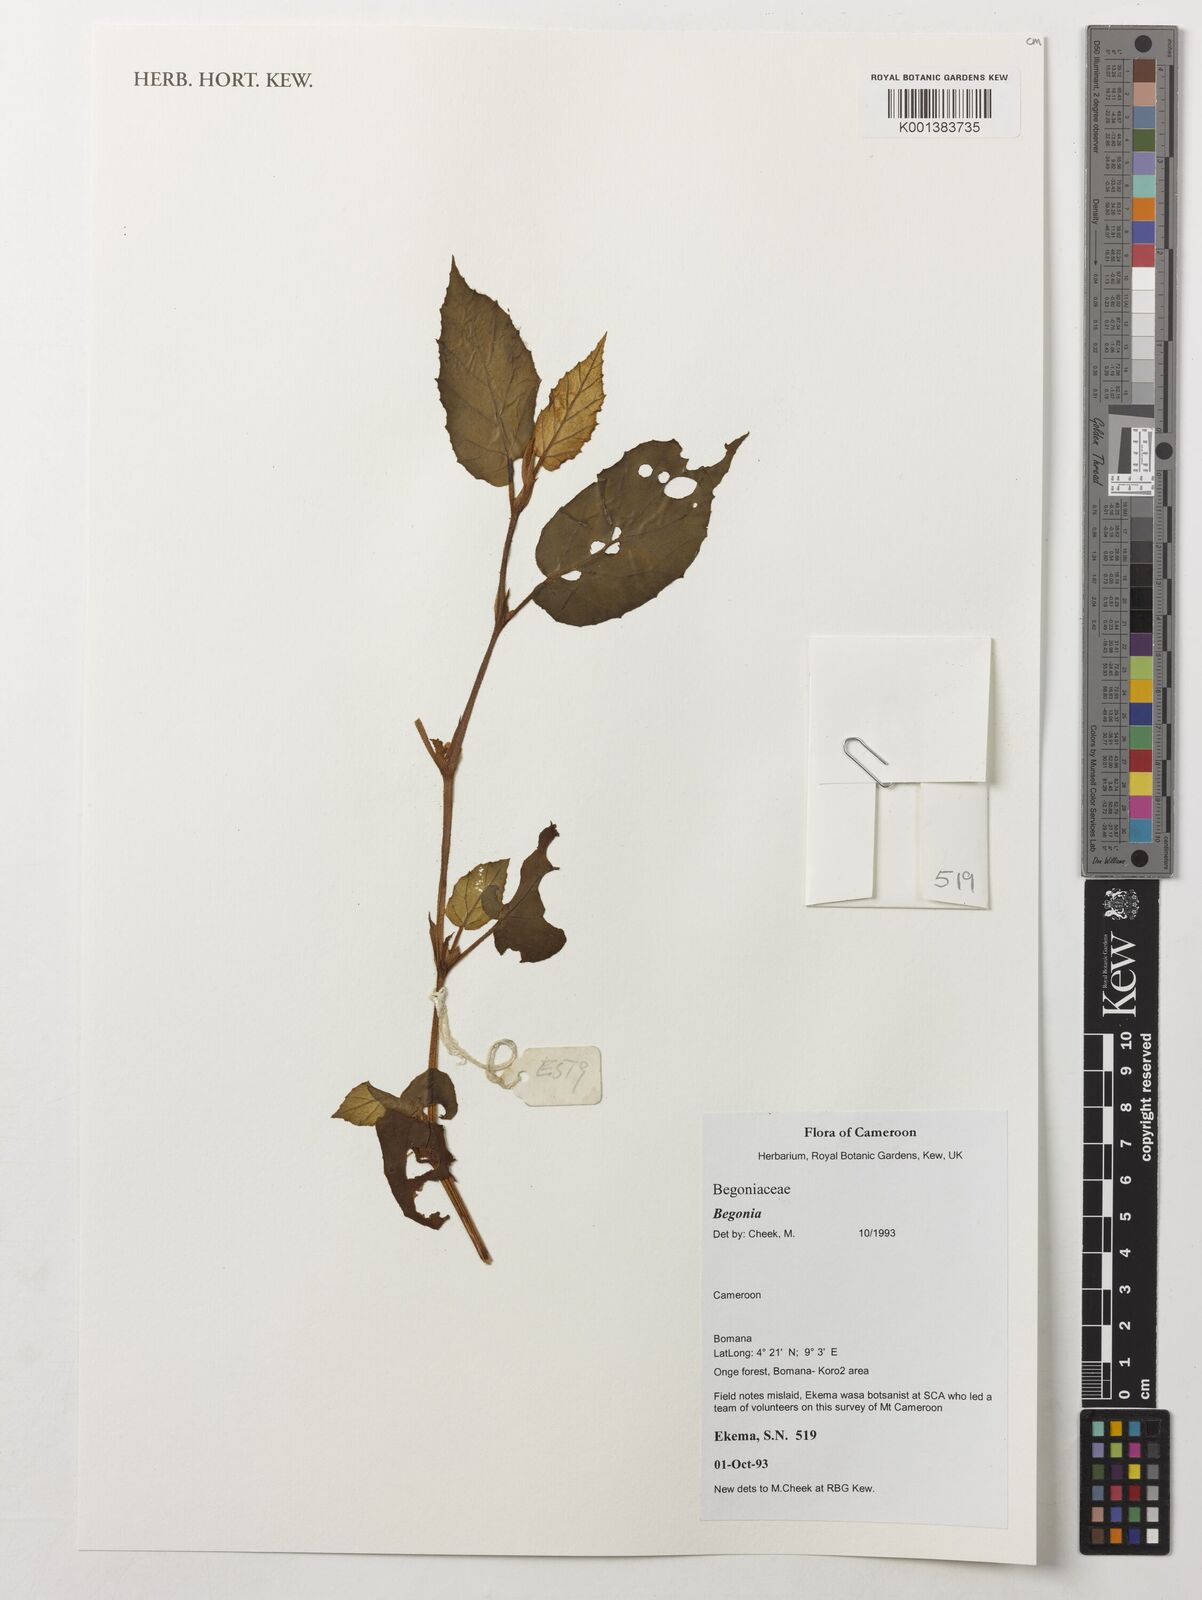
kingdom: Plantae
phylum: Tracheophyta
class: Magnoliopsida
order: Cucurbitales
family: Begoniaceae
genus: Begonia
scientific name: Begonia
